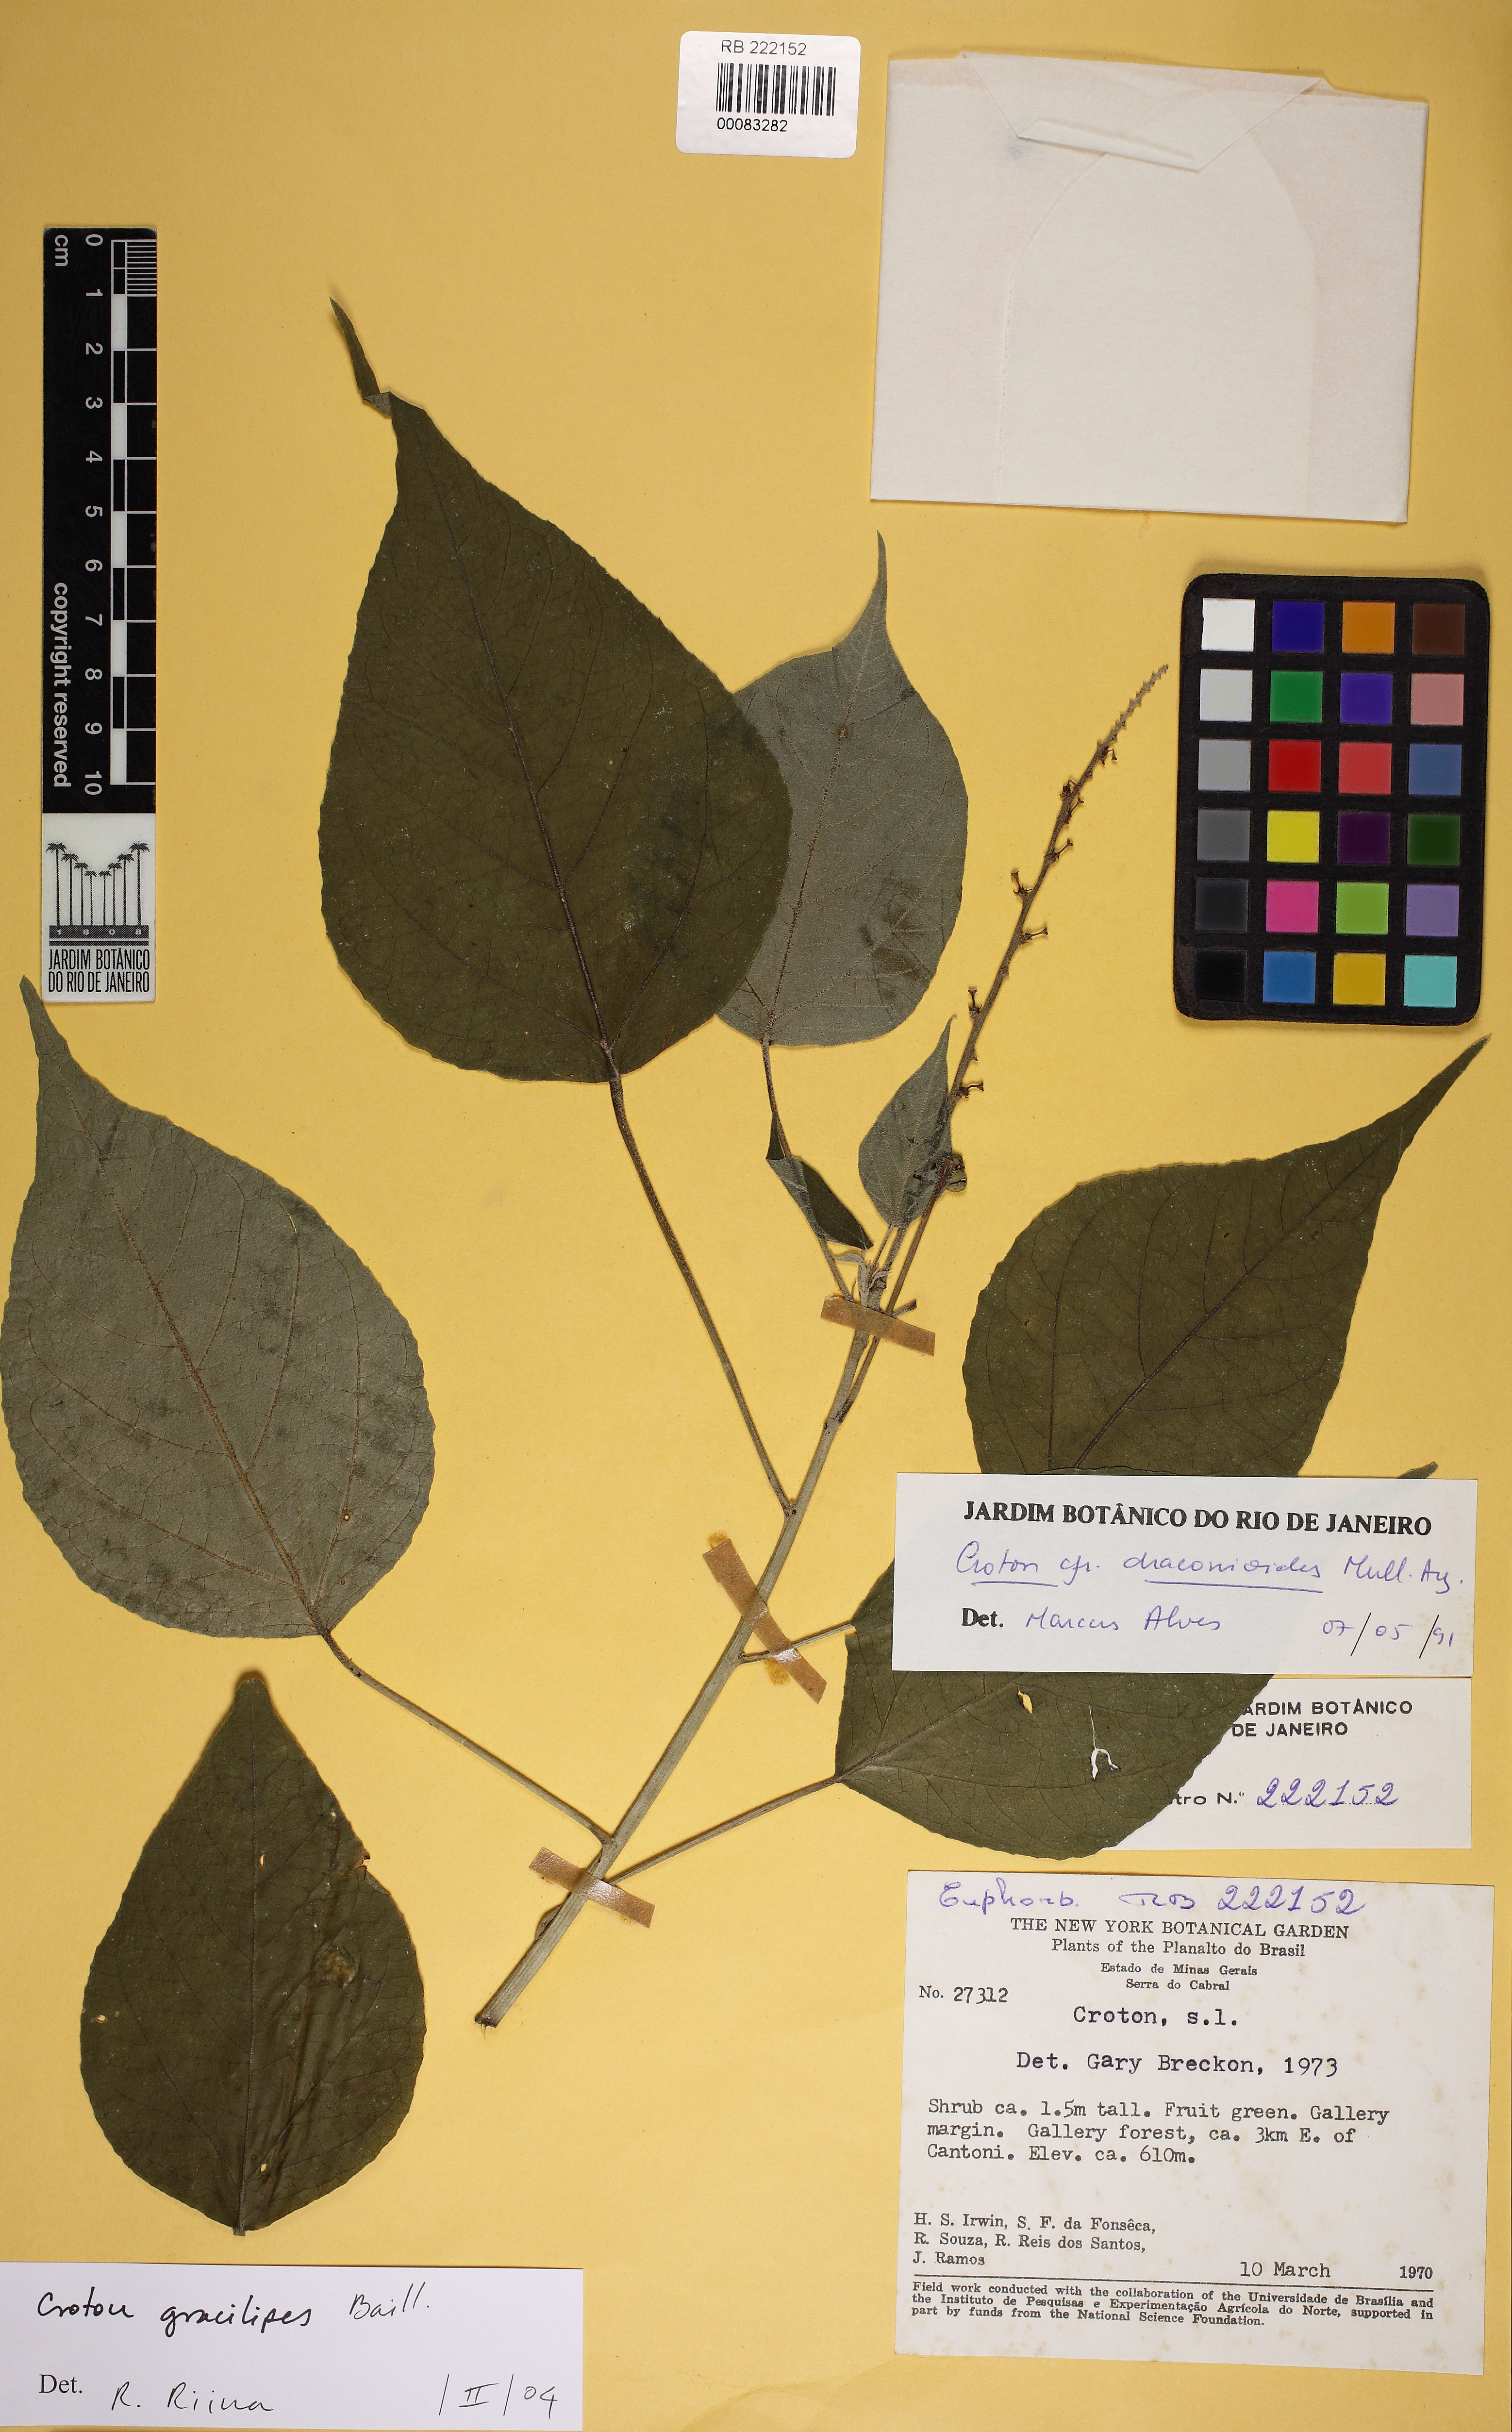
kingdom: Plantae
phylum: Tracheophyta
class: Magnoliopsida
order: Malpighiales
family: Euphorbiaceae
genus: Croton
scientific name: Croton gracilipes
